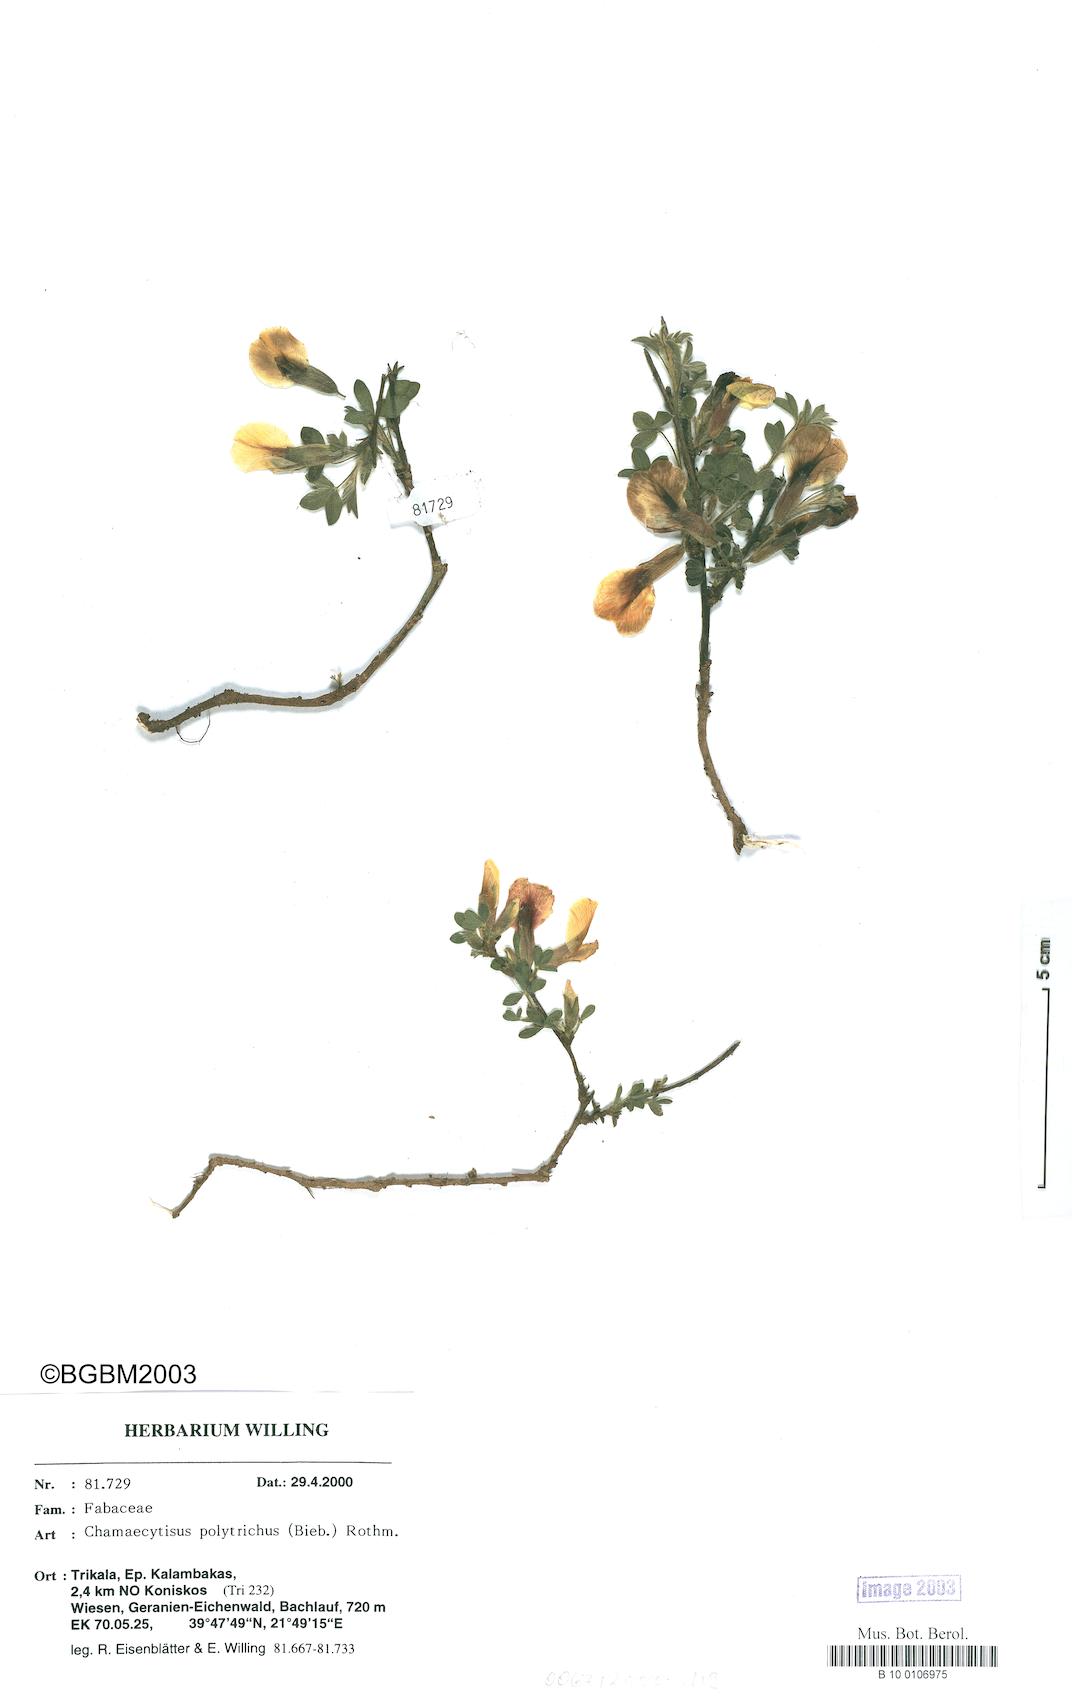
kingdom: Plantae
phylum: Tracheophyta
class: Magnoliopsida
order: Fabales
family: Fabaceae
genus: Chamaecytisus
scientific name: Chamaecytisus hirsutus
